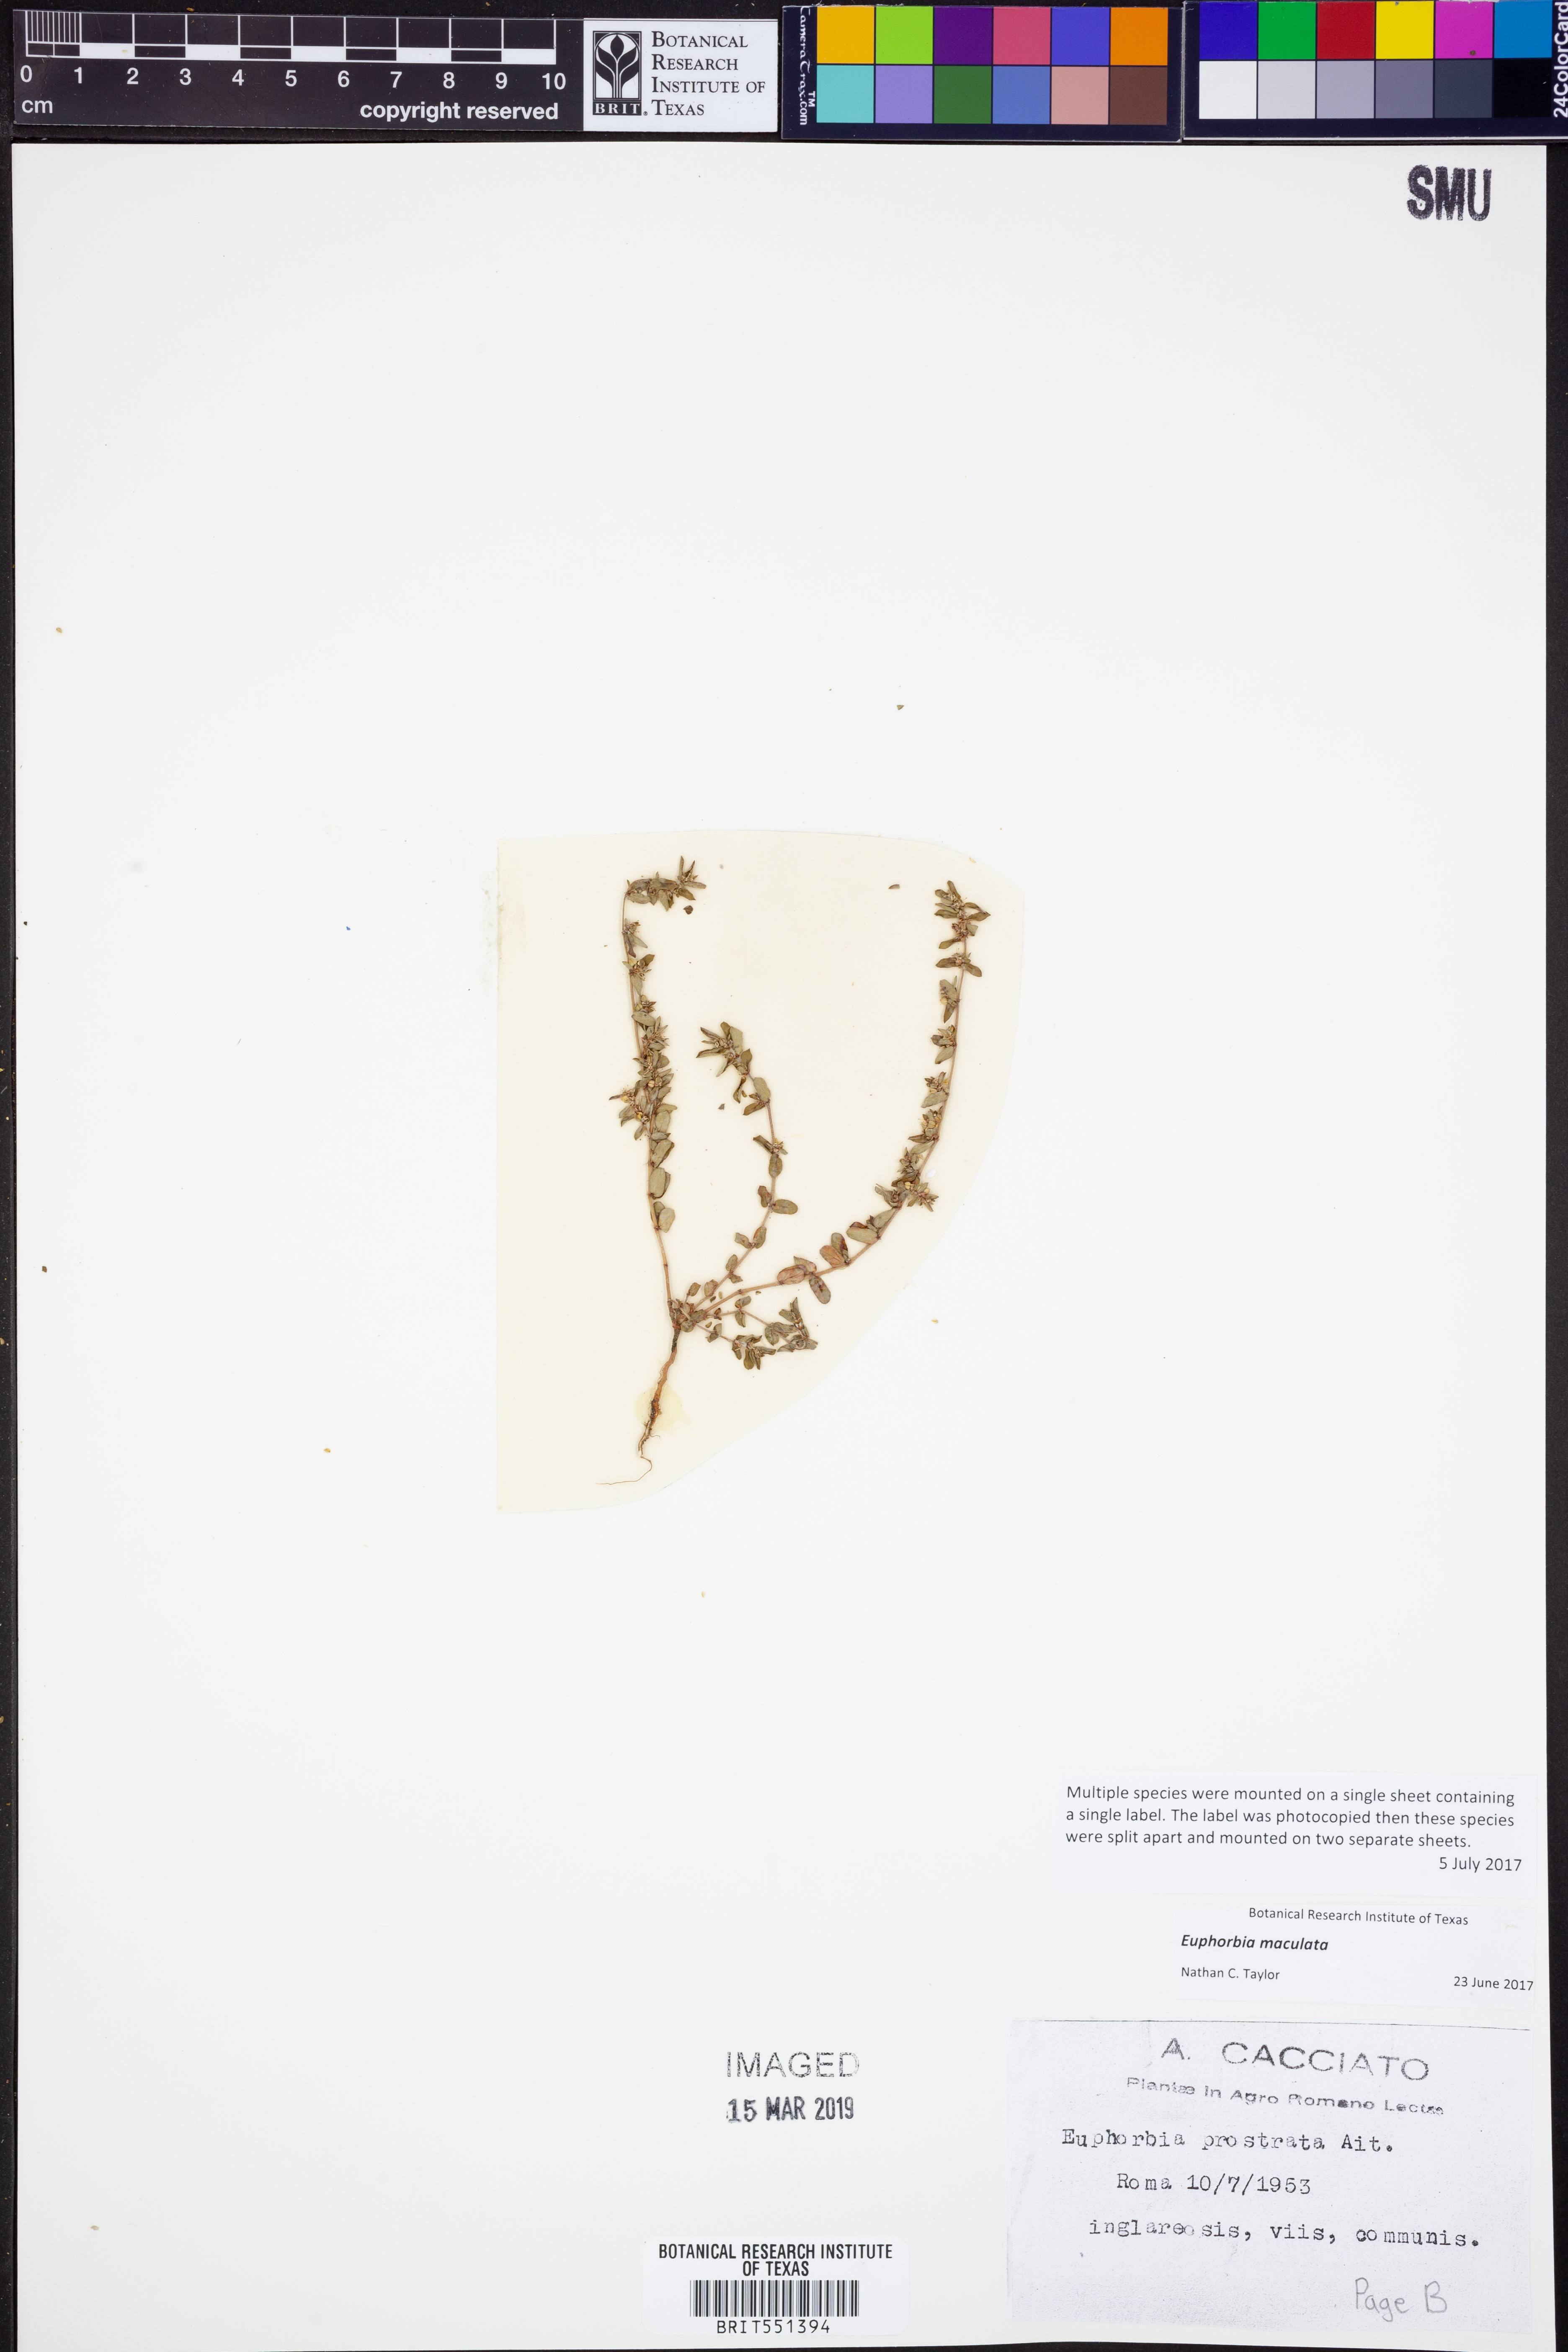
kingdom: Plantae
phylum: Tracheophyta
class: Magnoliopsida
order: Malpighiales
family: Euphorbiaceae
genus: Euphorbia
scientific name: Euphorbia maculata
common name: Spotted spurge
